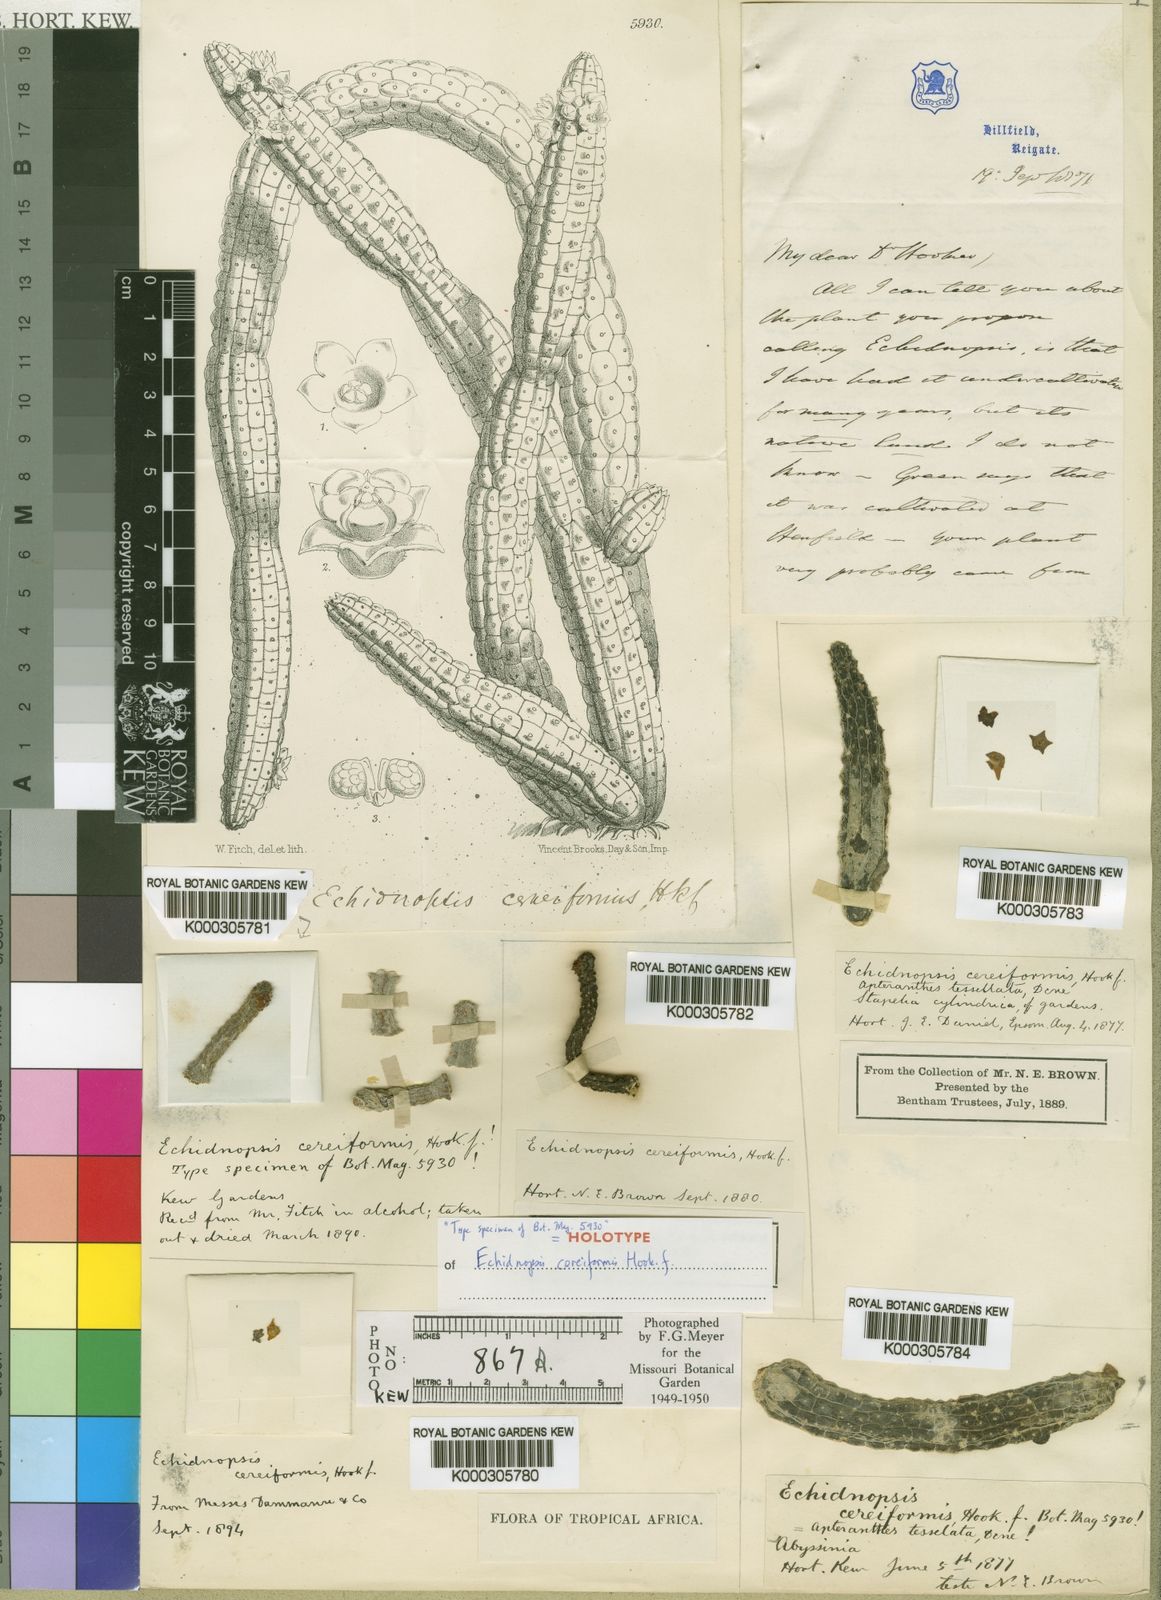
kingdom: Plantae
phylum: Tracheophyta
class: Magnoliopsida
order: Gentianales
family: Apocynaceae
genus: Ceropegia
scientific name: Ceropegia cereiformis
